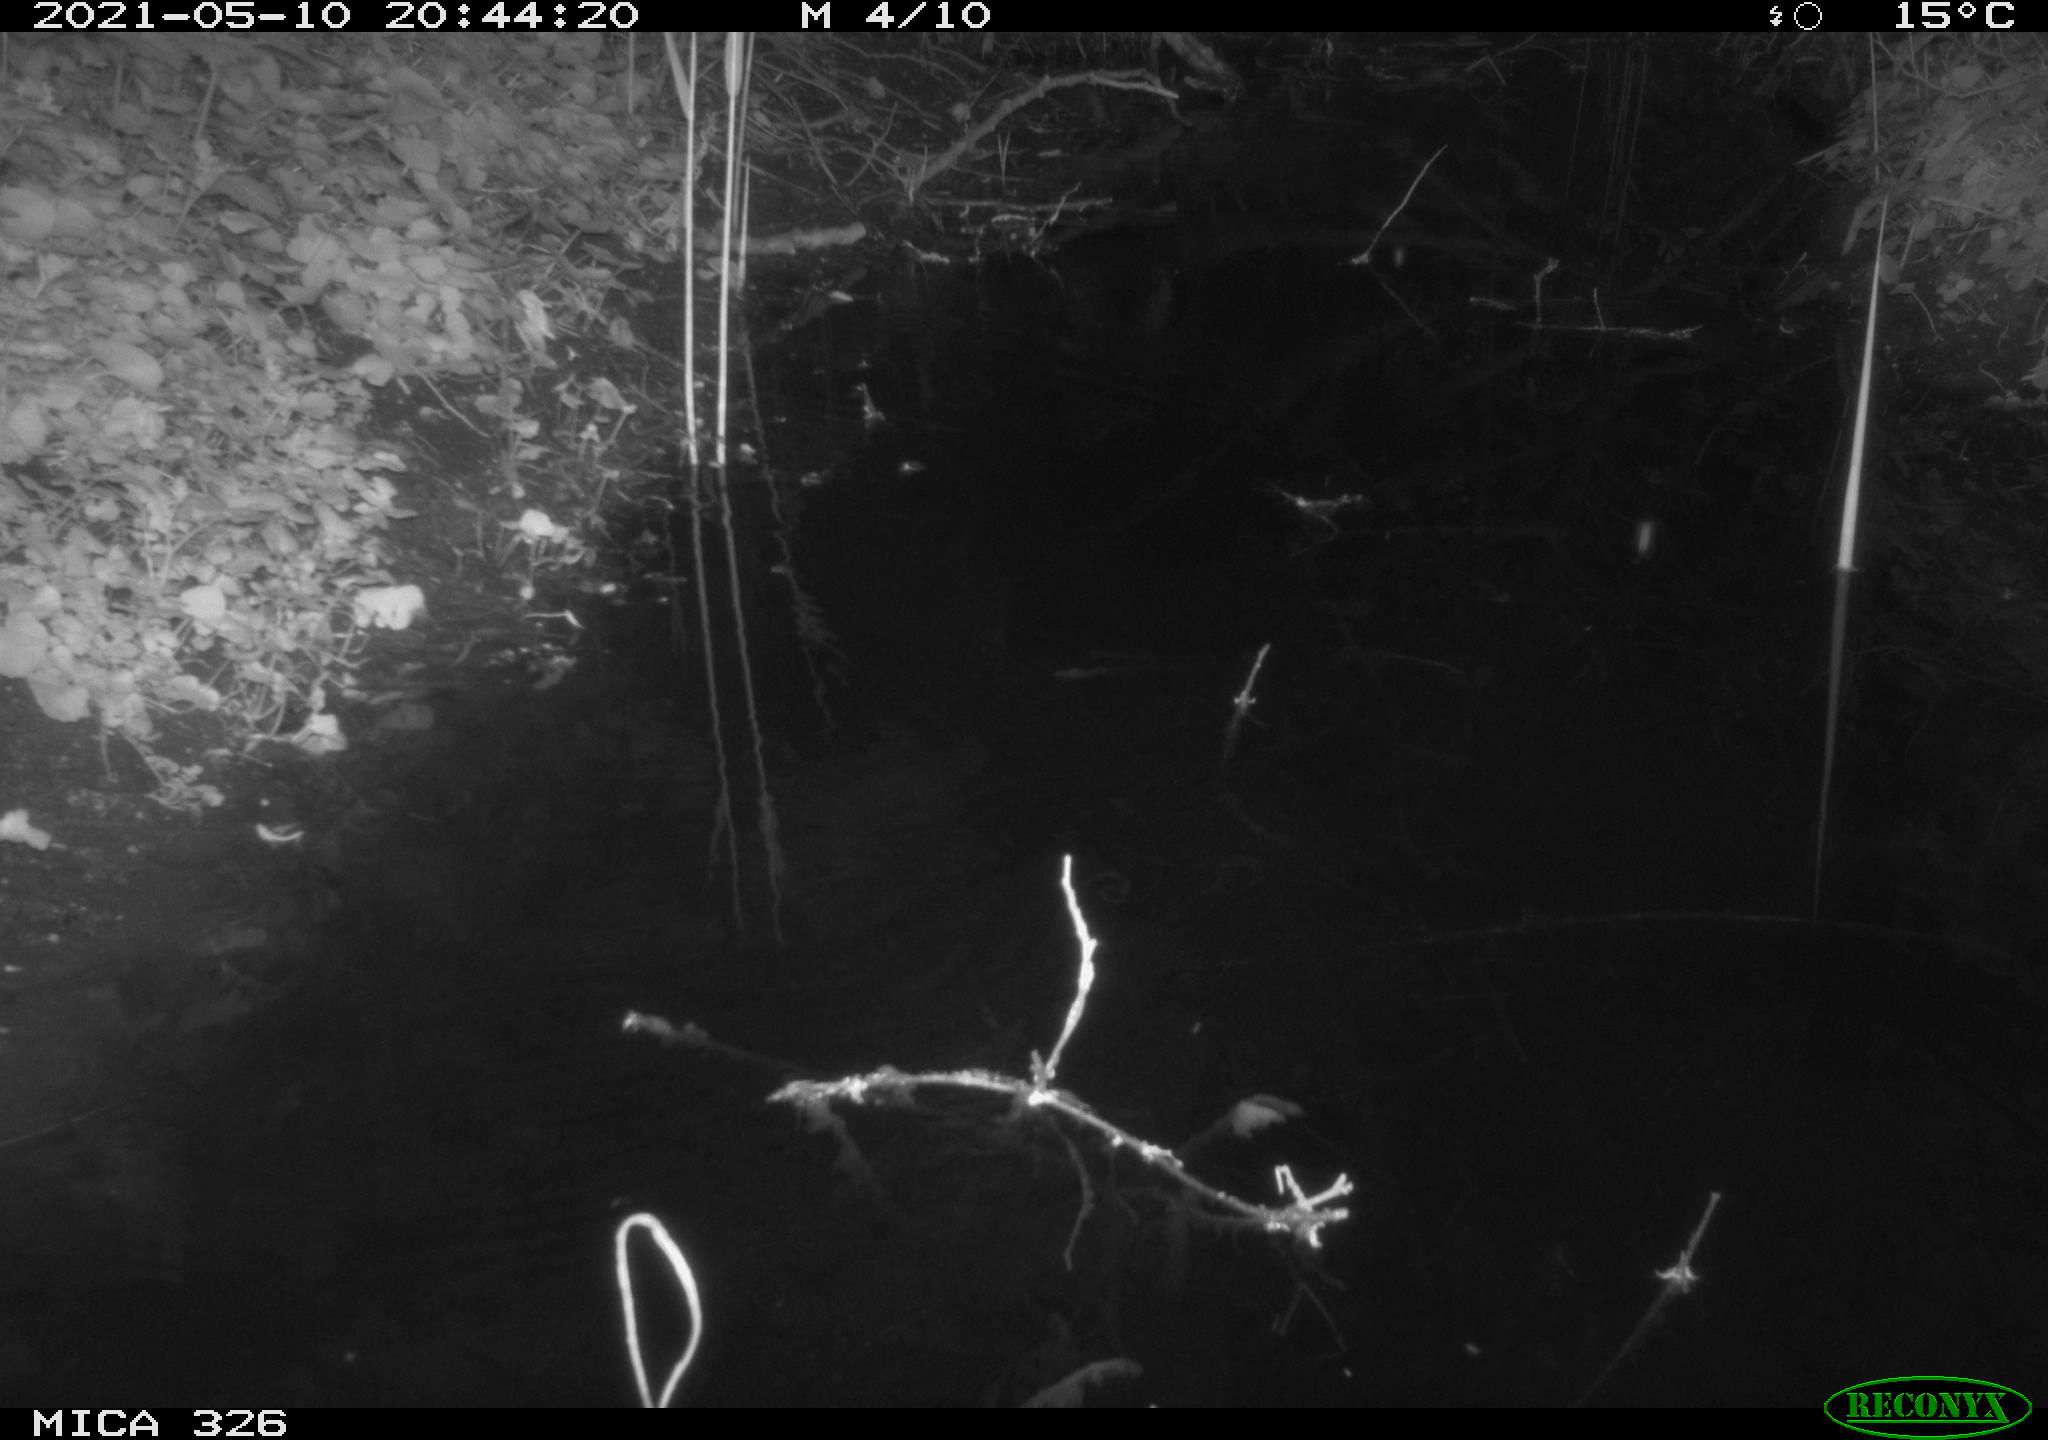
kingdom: Animalia
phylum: Chordata
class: Mammalia
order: Rodentia
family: Muridae
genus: Rattus
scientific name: Rattus norvegicus
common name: Brown rat
